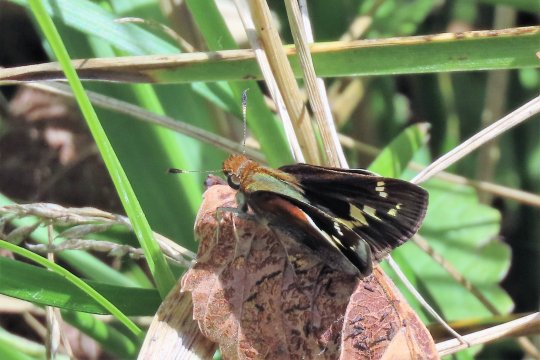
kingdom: Animalia
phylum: Arthropoda
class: Insecta
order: Lepidoptera
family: Hesperiidae
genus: Lon
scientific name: Lon zabulon
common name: Zabulon Skipper
